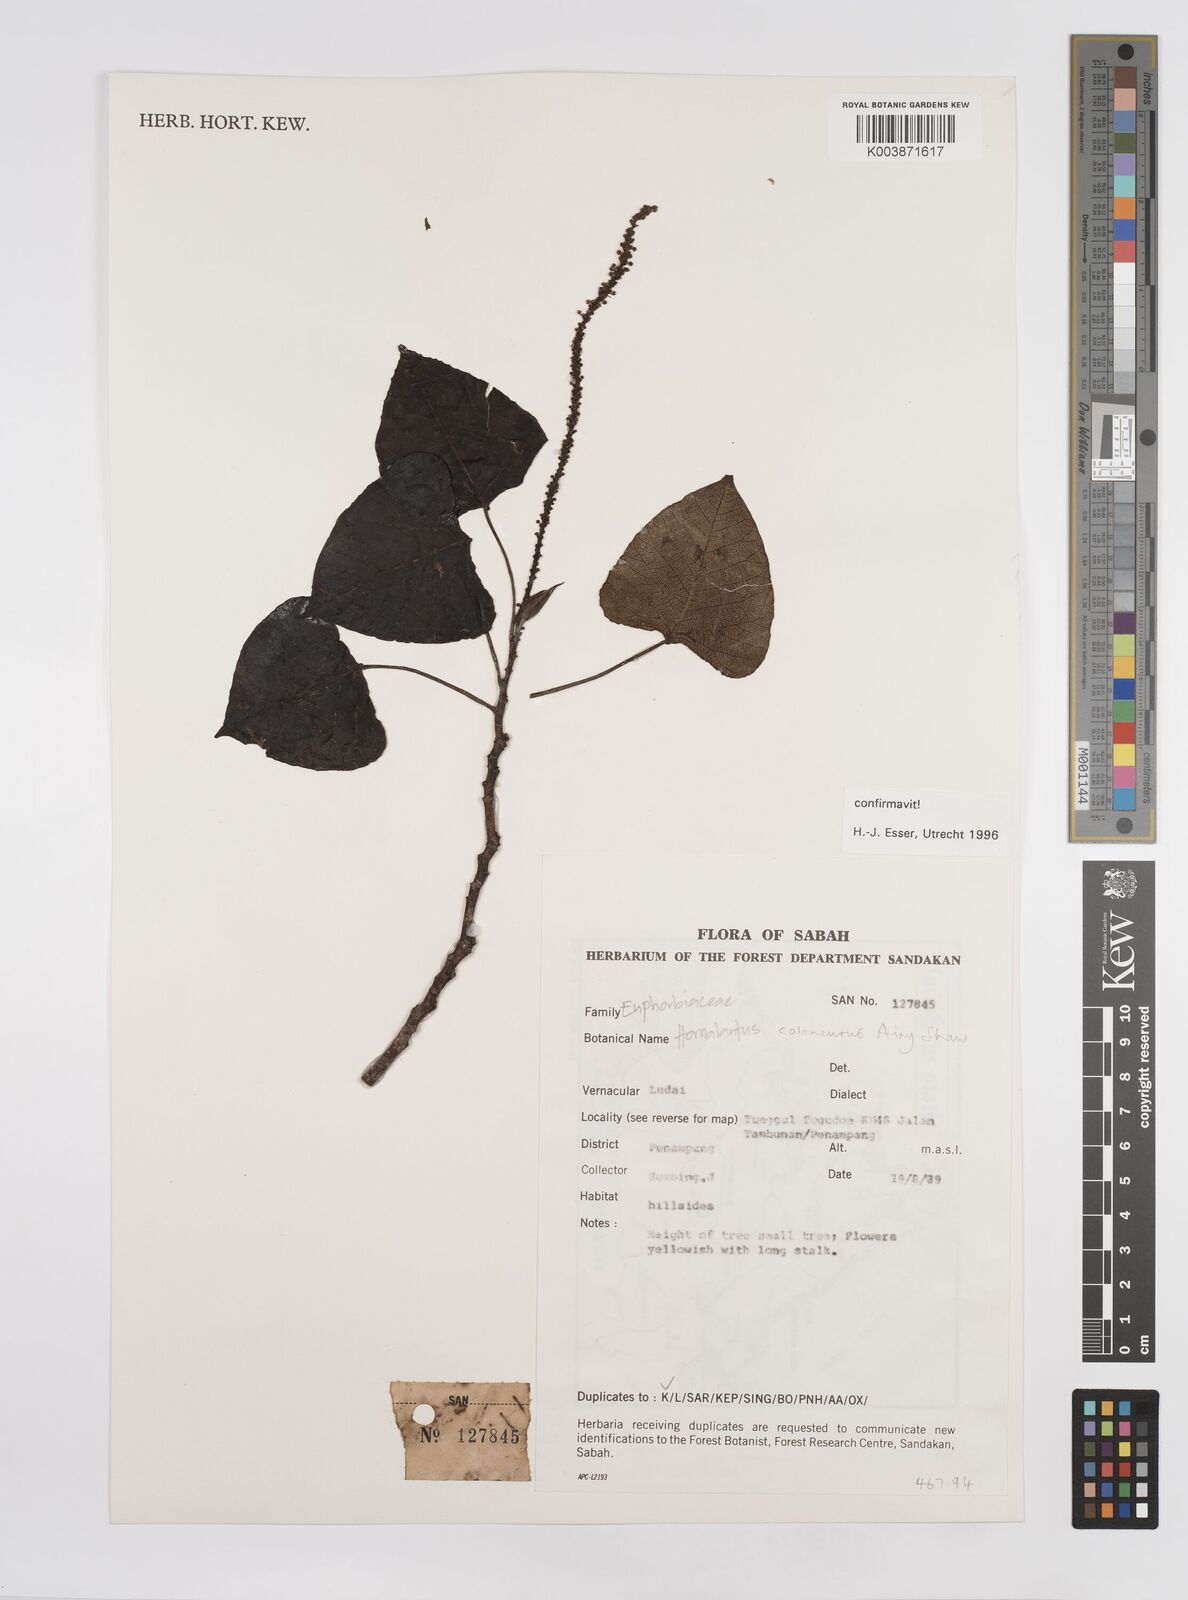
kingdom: Plantae
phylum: Tracheophyta
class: Magnoliopsida
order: Malpighiales
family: Euphorbiaceae
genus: Homalanthus
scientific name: Homalanthus caloneurus
